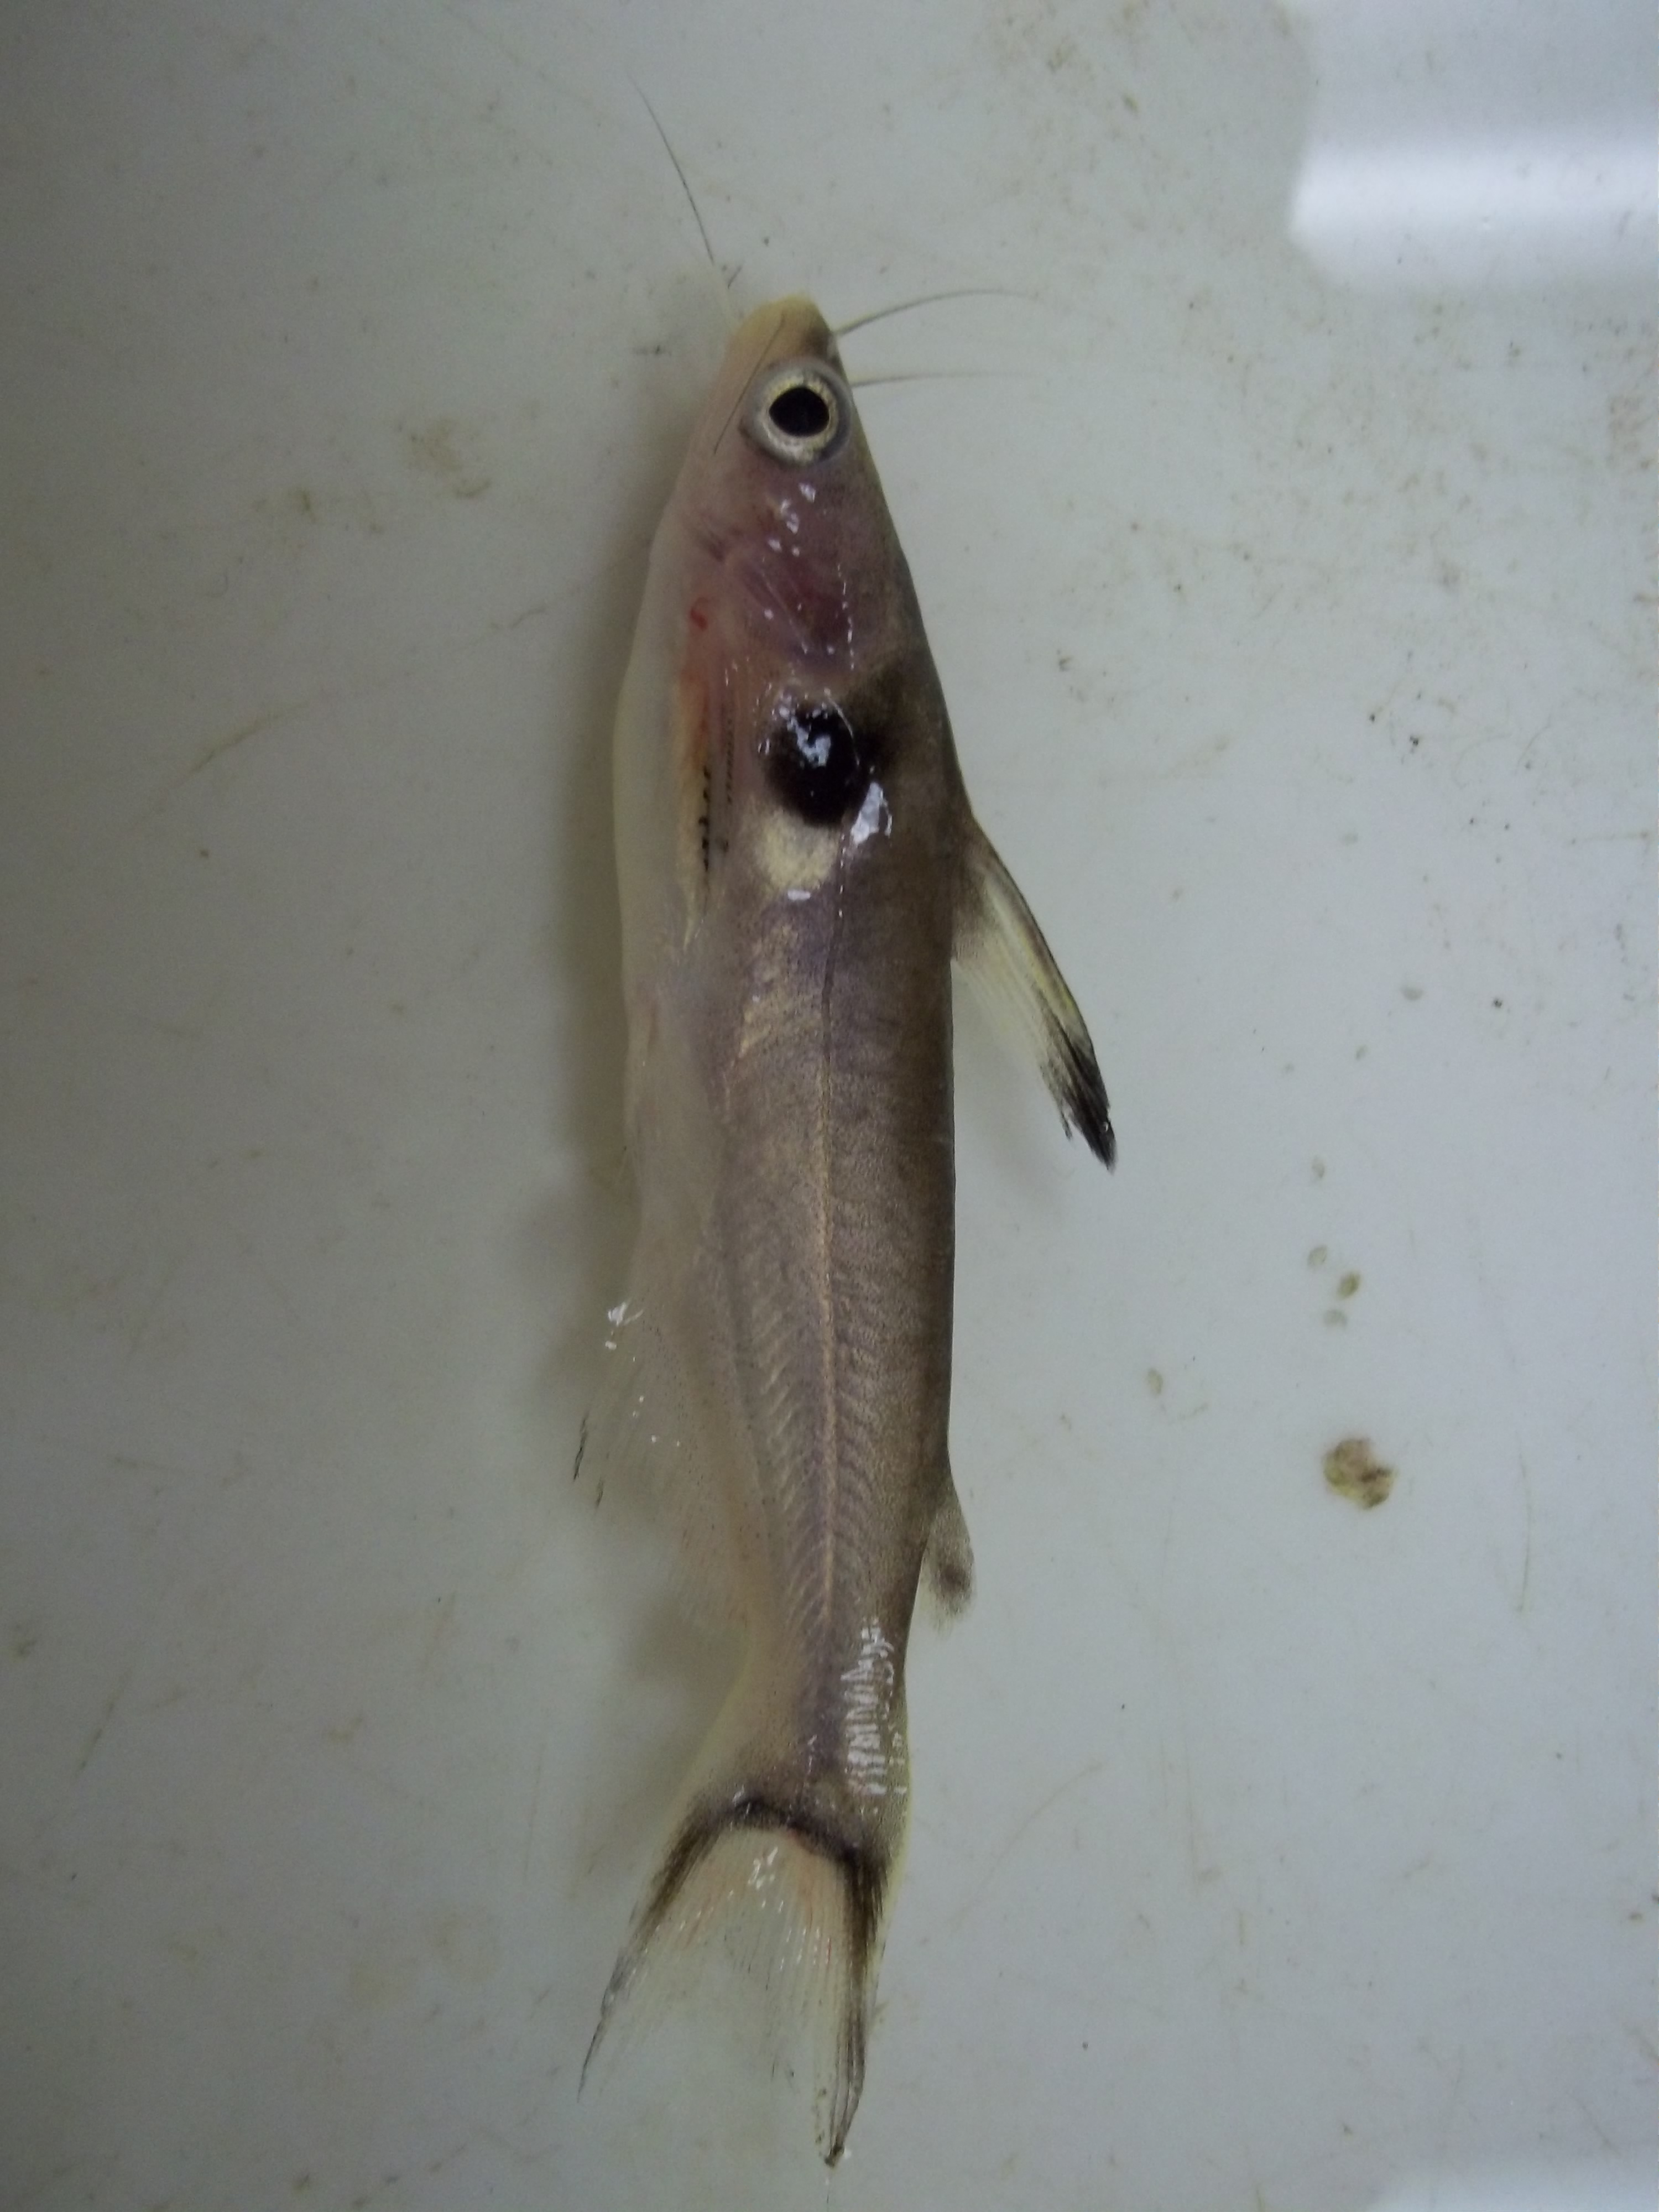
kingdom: Animalia
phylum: Chordata
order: Siluriformes
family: Bagridae
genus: Horabagrus
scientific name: Horabagrus brachysoma
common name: Bulls eye catfish
